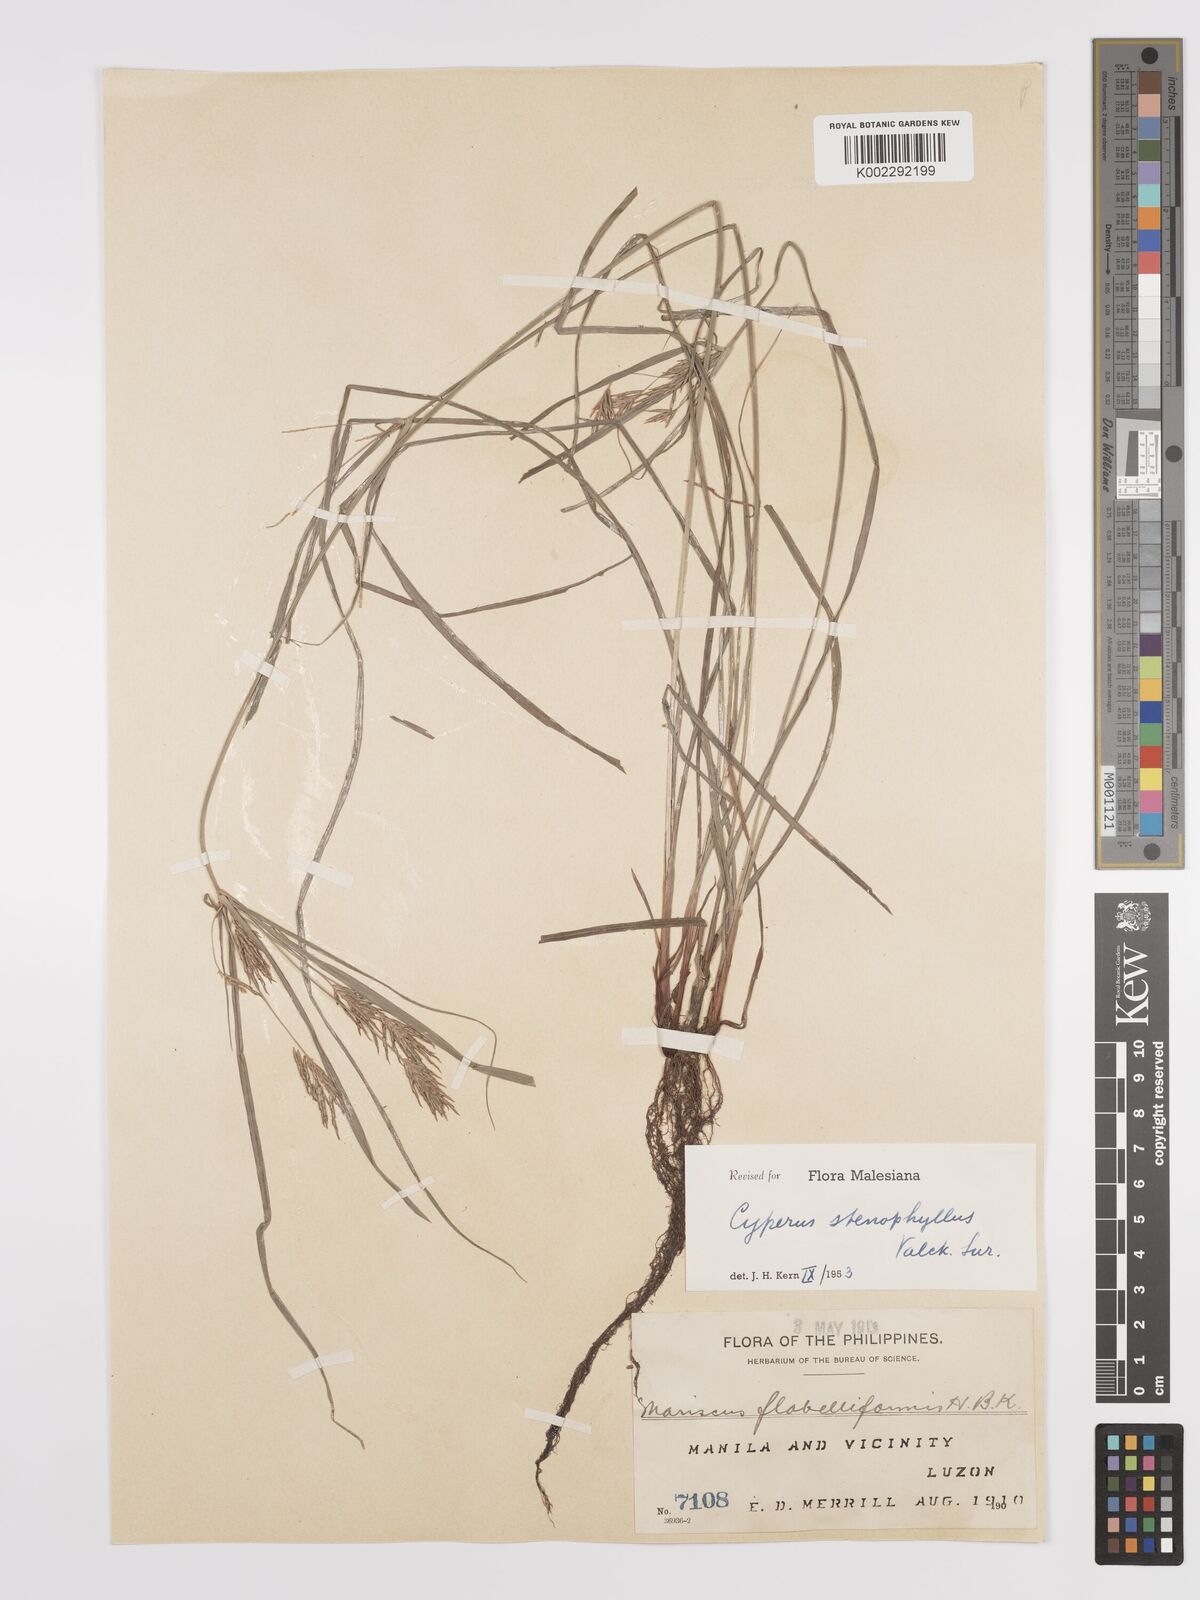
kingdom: Plantae
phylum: Tracheophyta
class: Liliopsida
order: Poales
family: Cyperaceae
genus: Cyperus
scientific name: Cyperus stenophyllus
